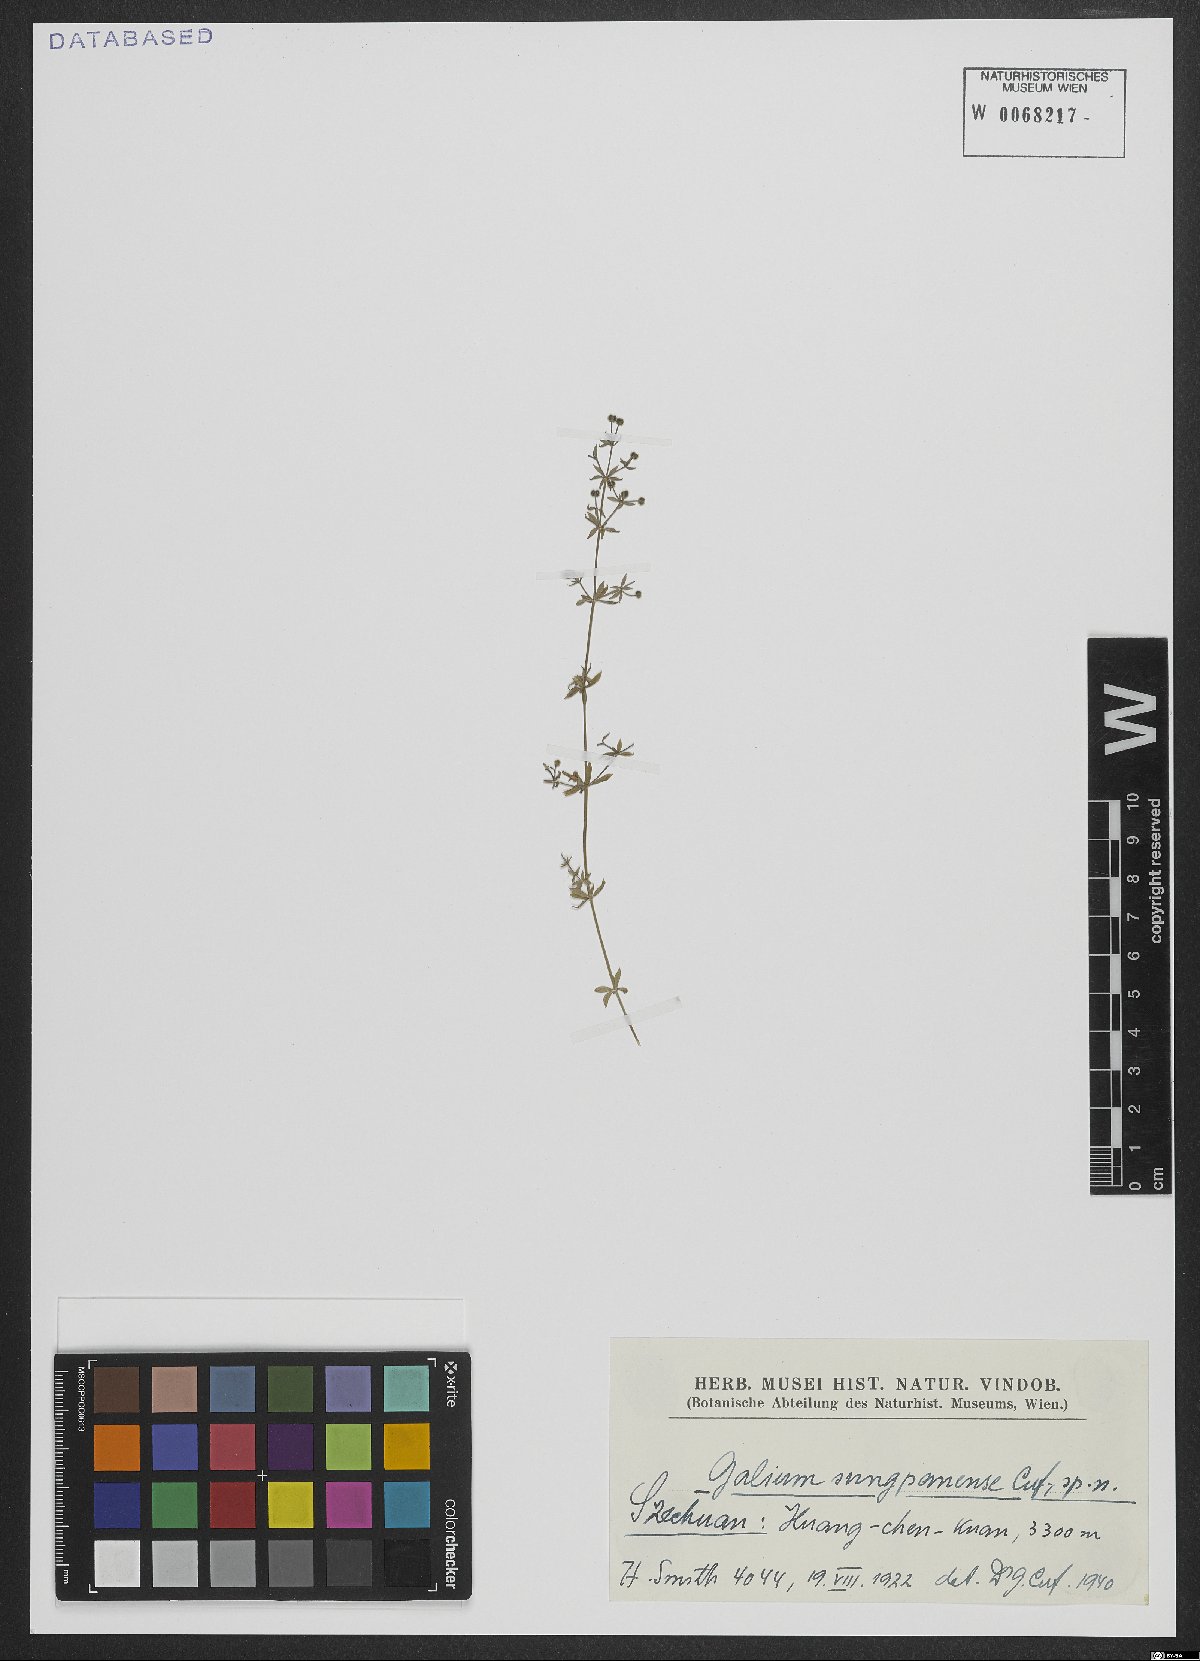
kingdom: Plantae
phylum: Tracheophyta
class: Magnoliopsida
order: Gentianales
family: Rubiaceae
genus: Galium
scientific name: Galium sungpanense
